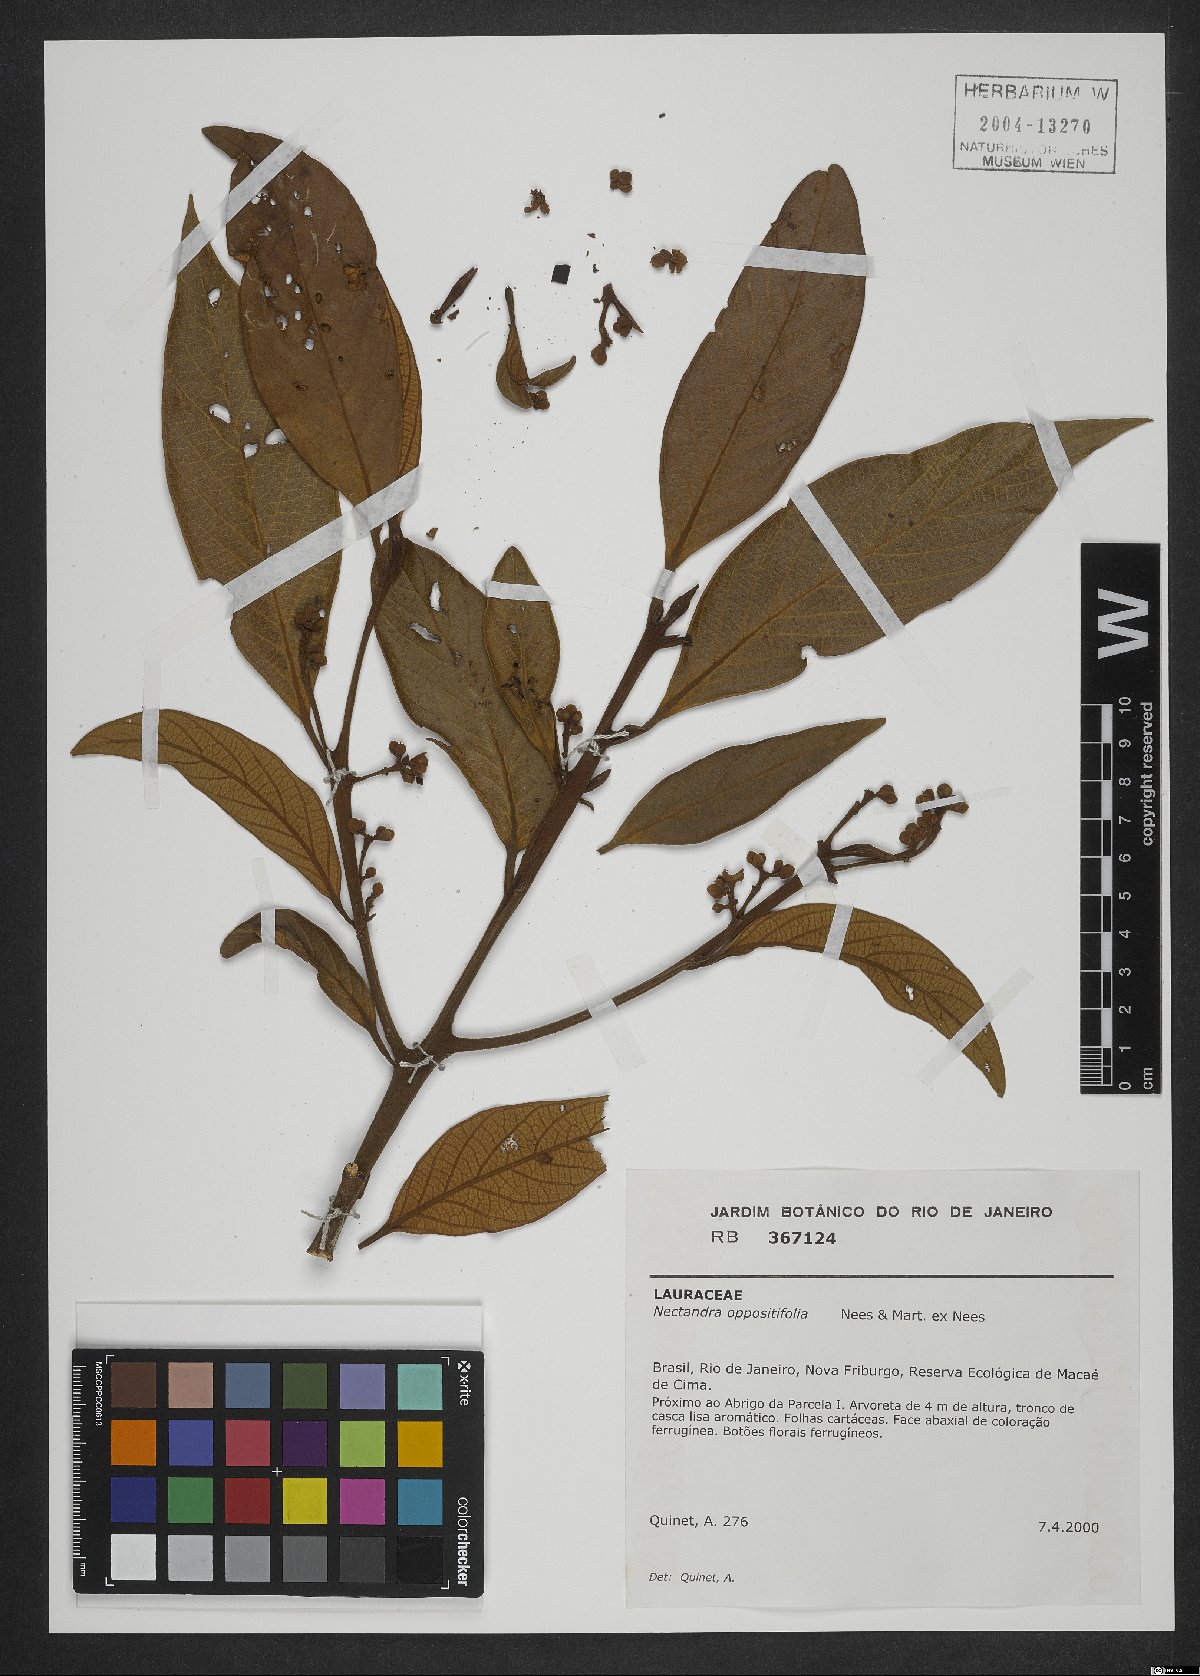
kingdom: Plantae
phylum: Tracheophyta
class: Magnoliopsida
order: Laurales
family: Lauraceae
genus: Nectandra
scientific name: Nectandra oppositifolia
